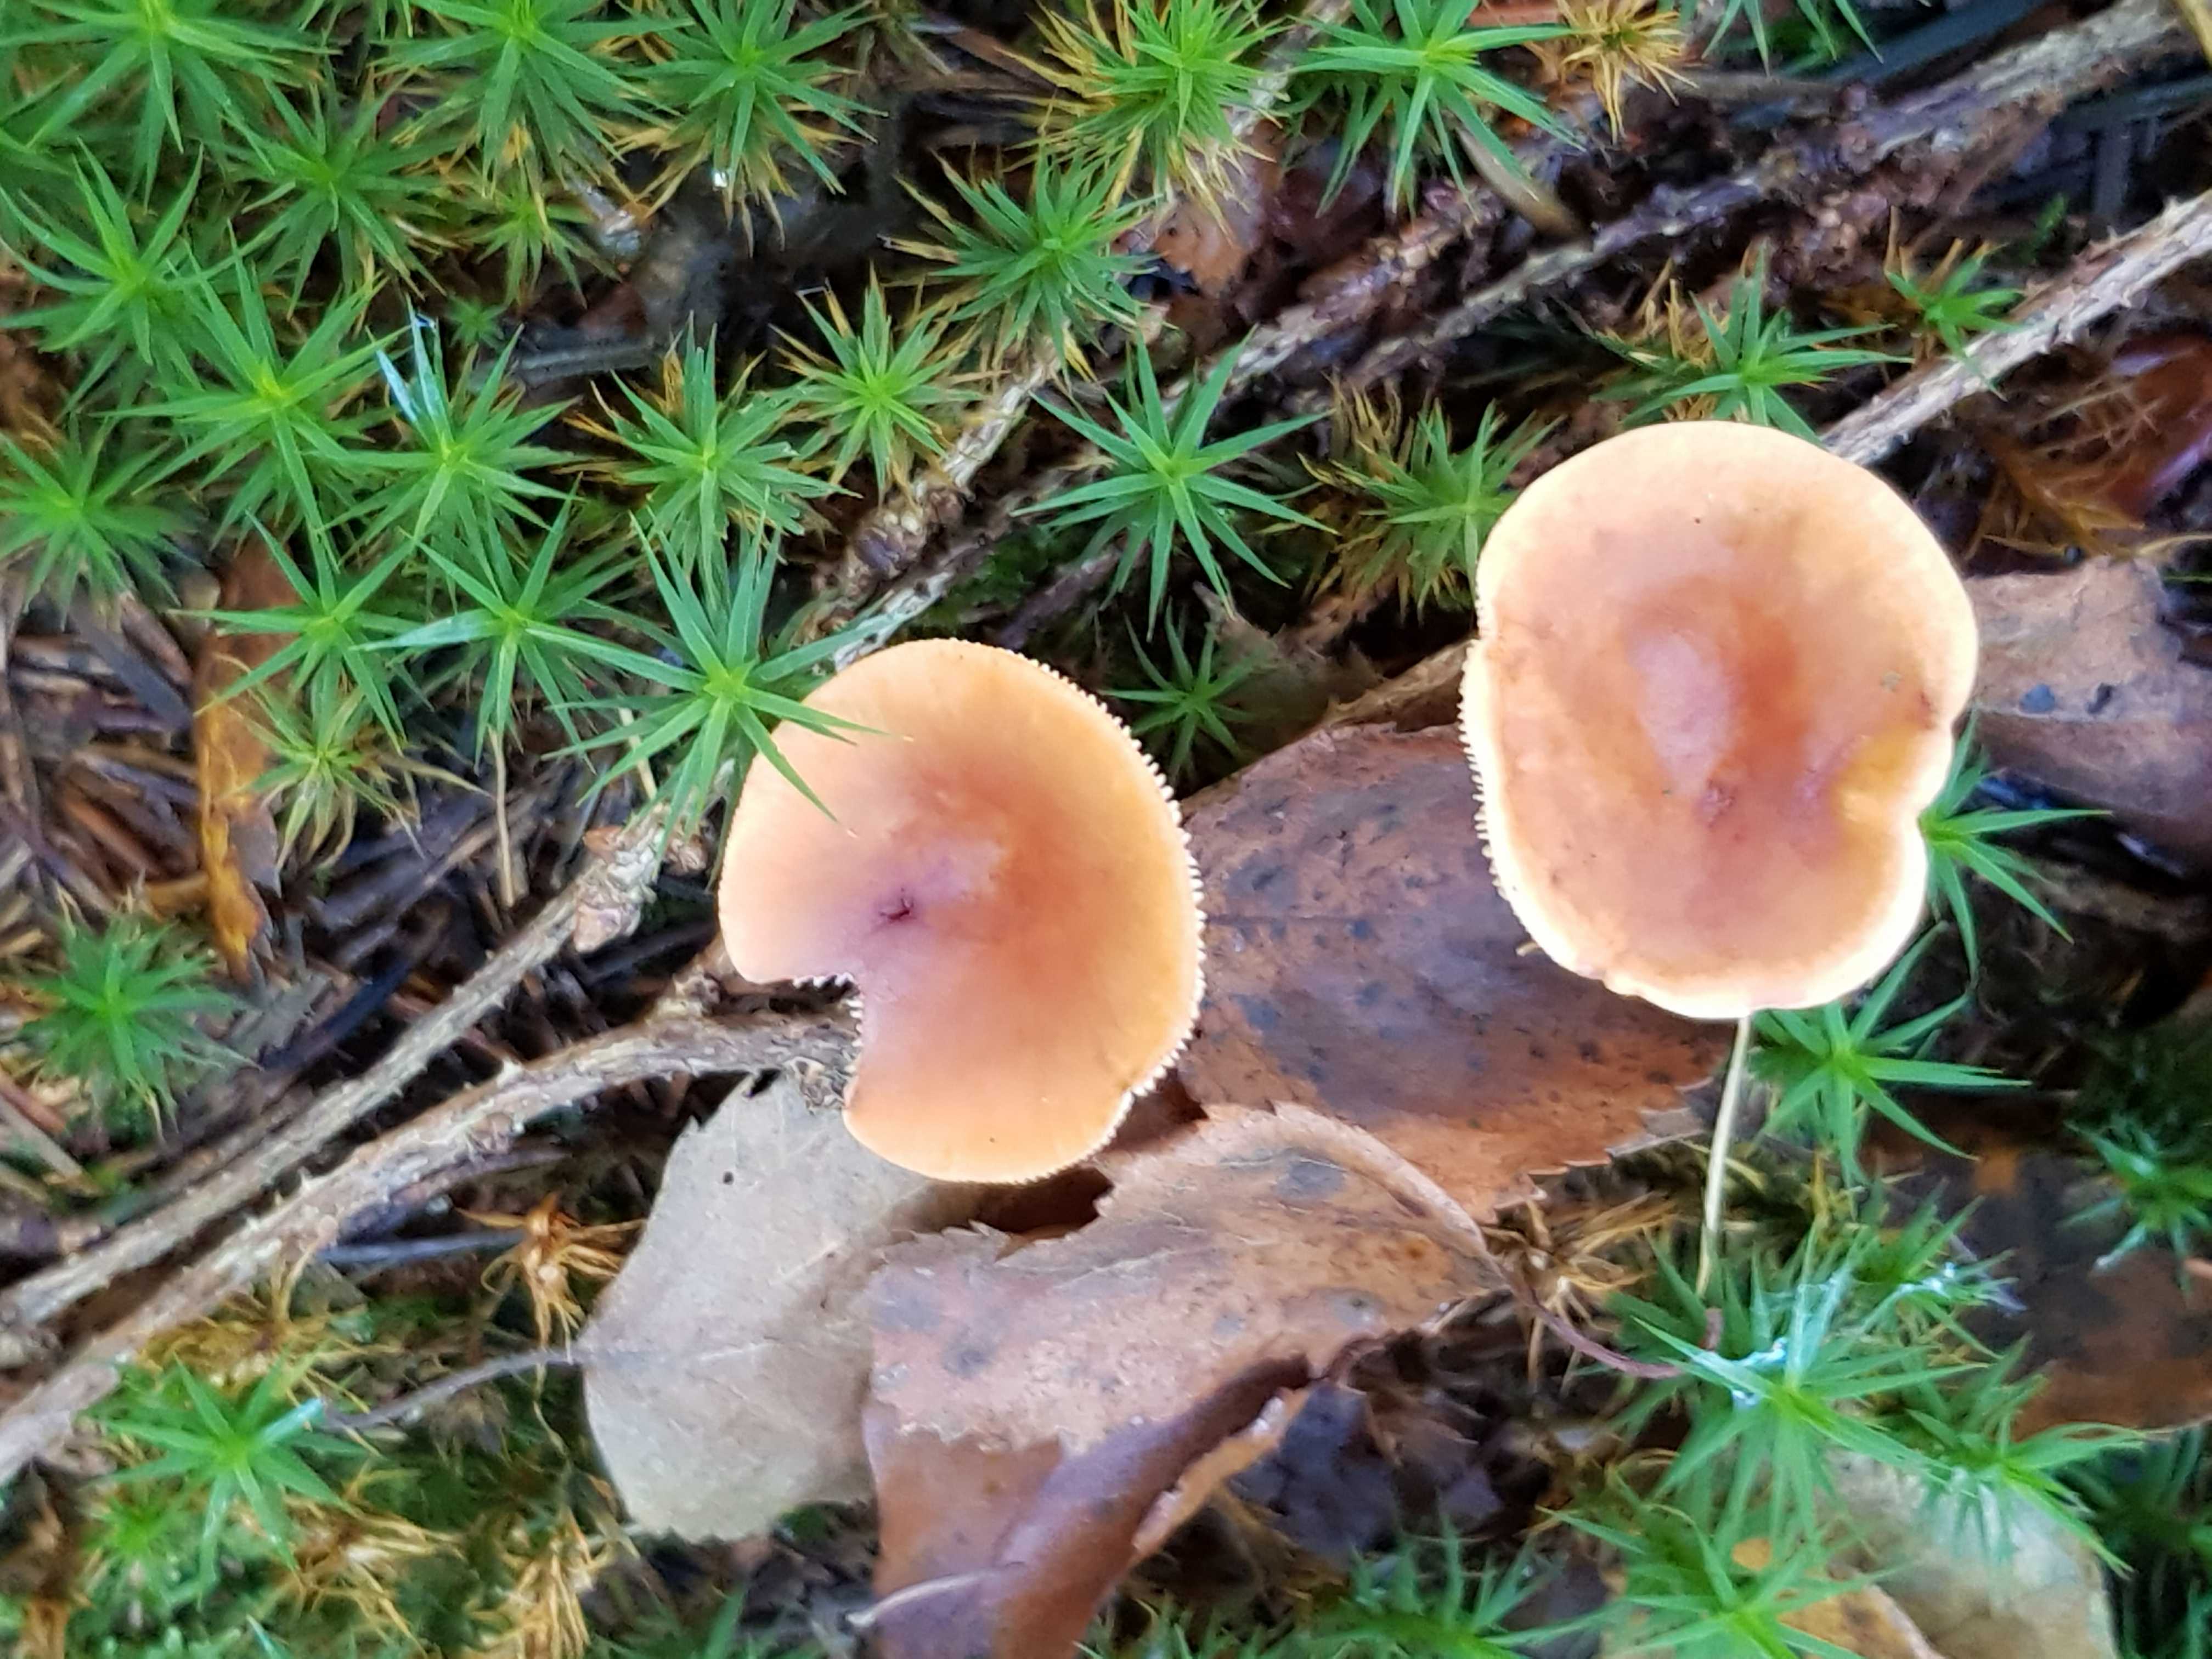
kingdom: Fungi
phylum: Basidiomycota
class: Agaricomycetes
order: Russulales
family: Russulaceae
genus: Lactarius
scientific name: Lactarius tabidus
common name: rynket mælkehat
